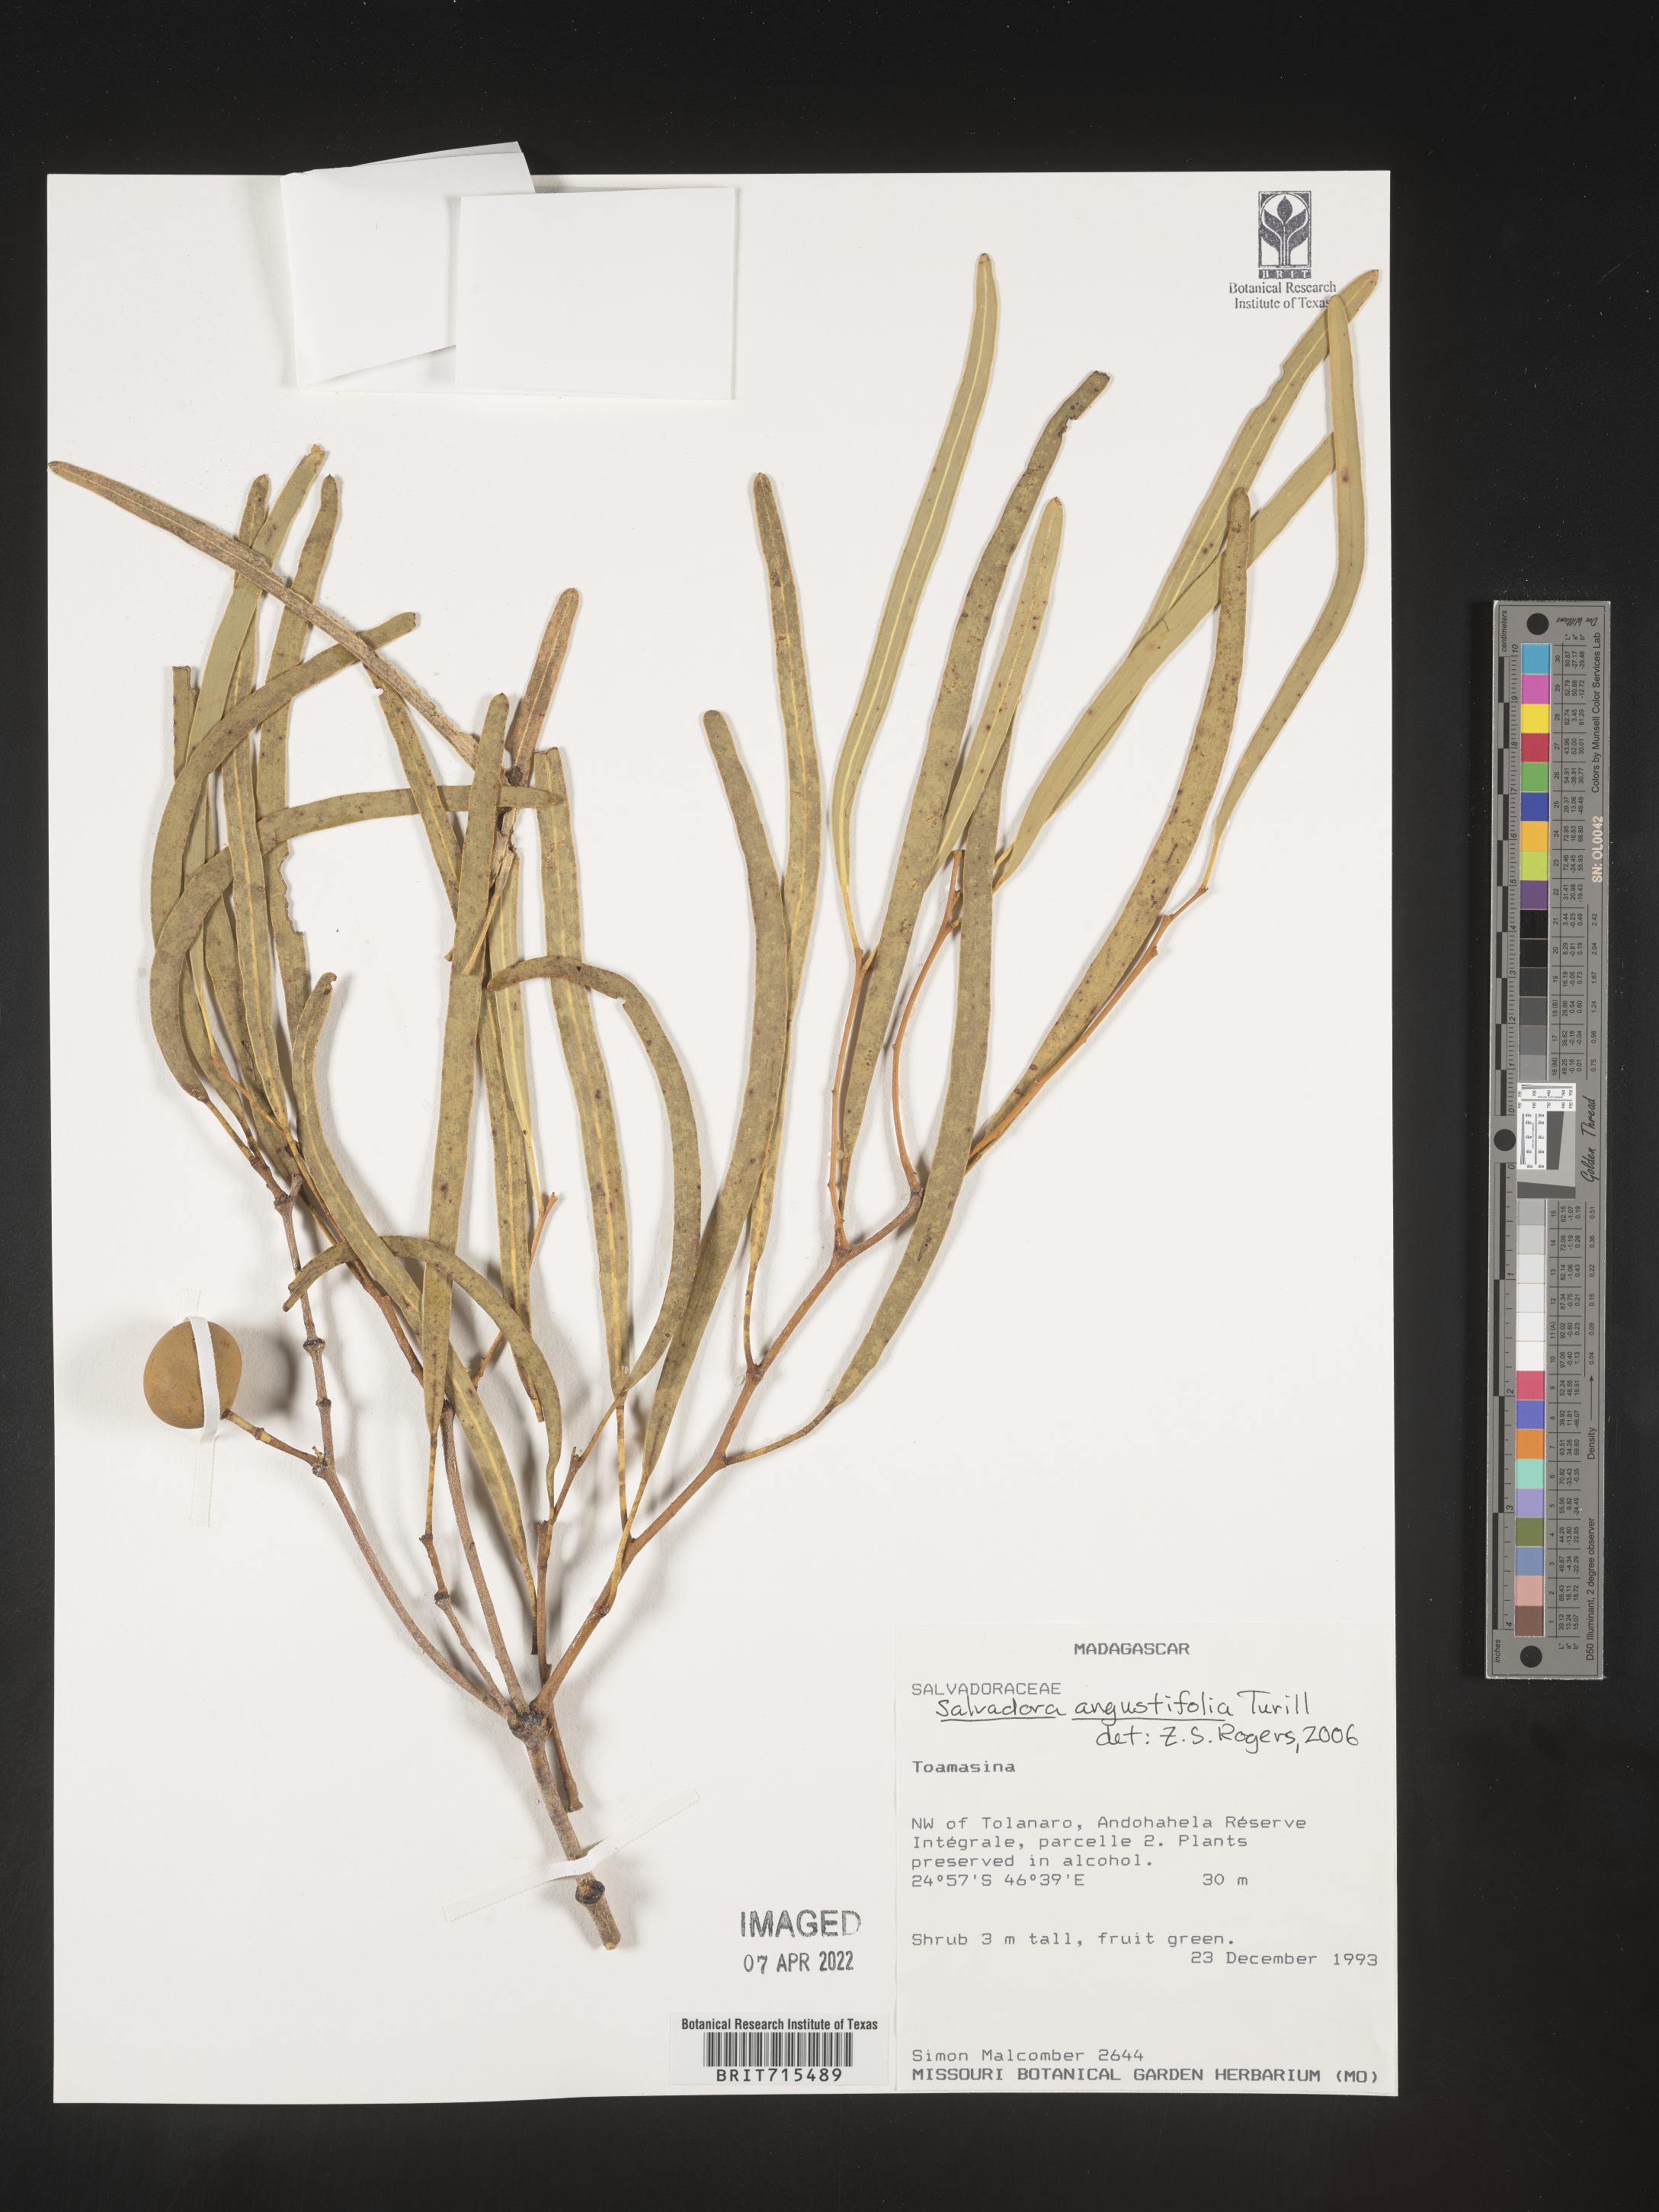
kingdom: Plantae
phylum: Tracheophyta
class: Magnoliopsida
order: Brassicales
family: Salvadoraceae
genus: Salvadora
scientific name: Salvadora
